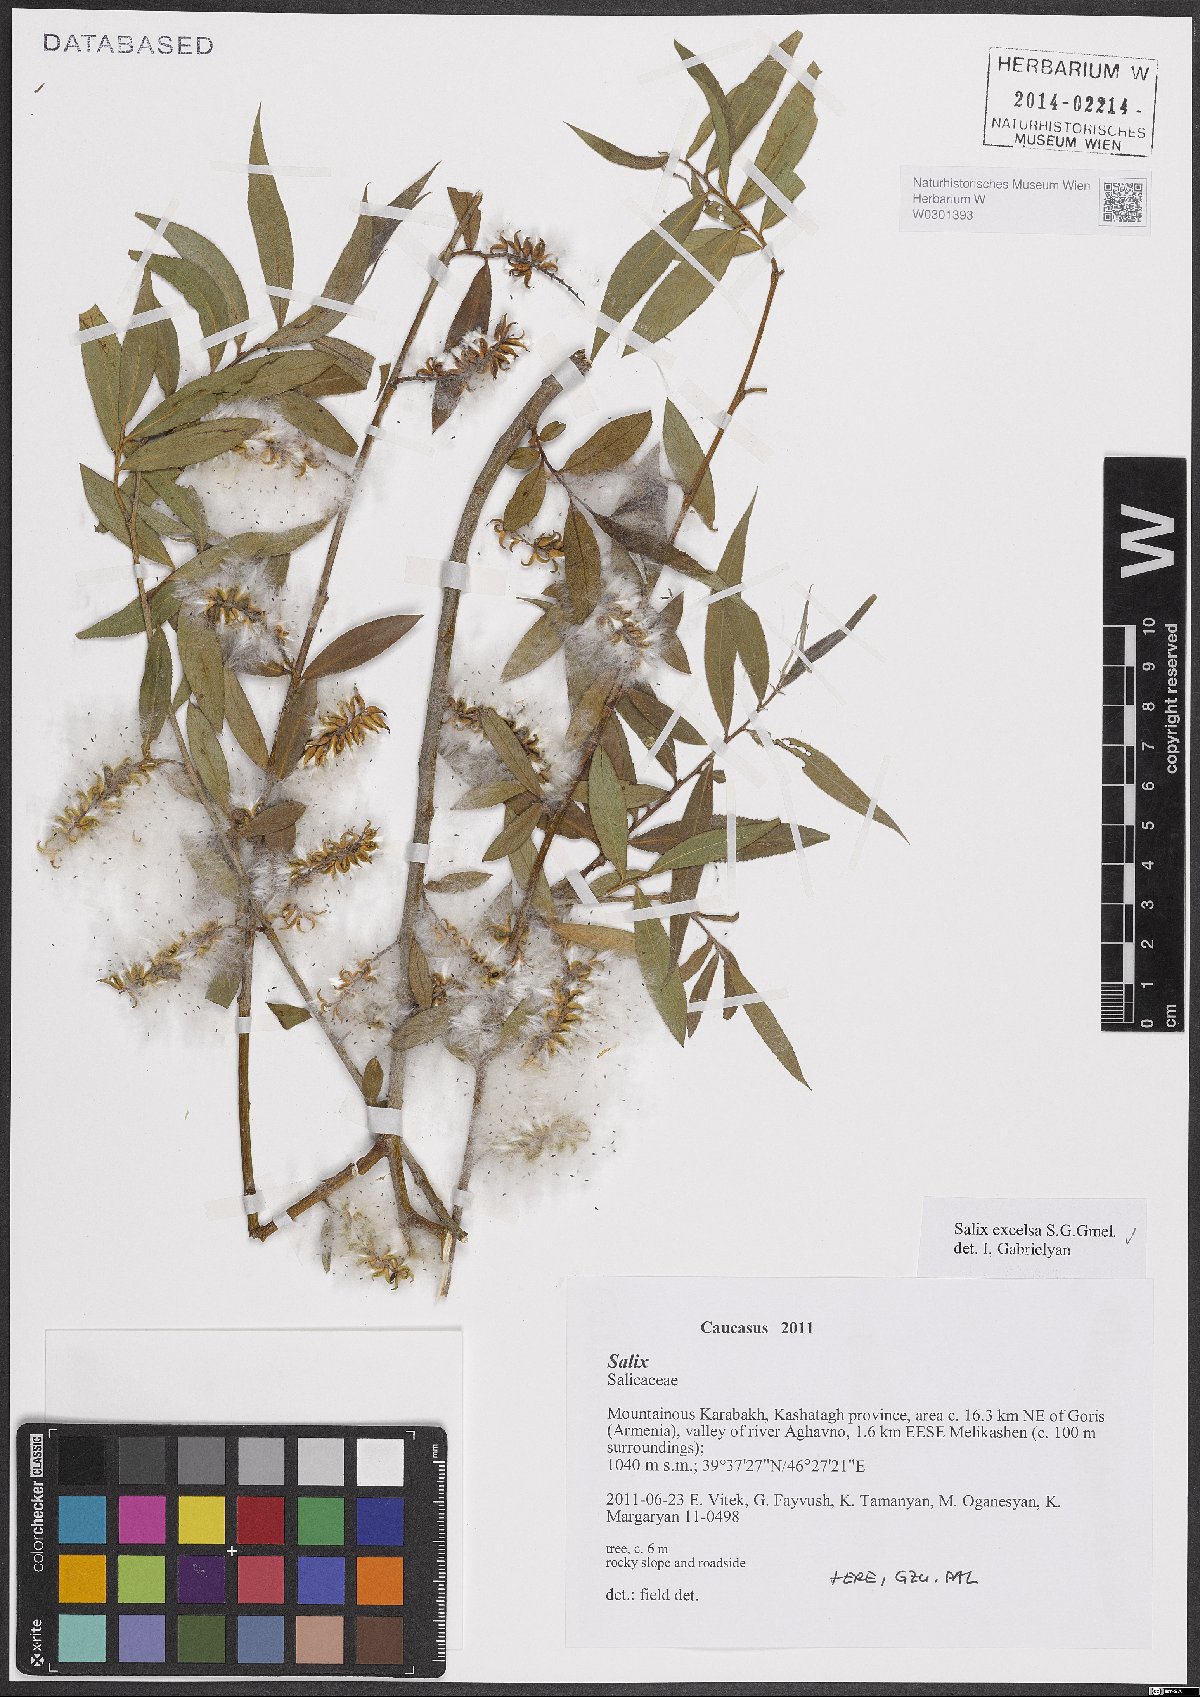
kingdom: Plantae
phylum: Tracheophyta
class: Magnoliopsida
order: Malpighiales
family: Salicaceae
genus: Salix
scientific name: Salix excelsa
